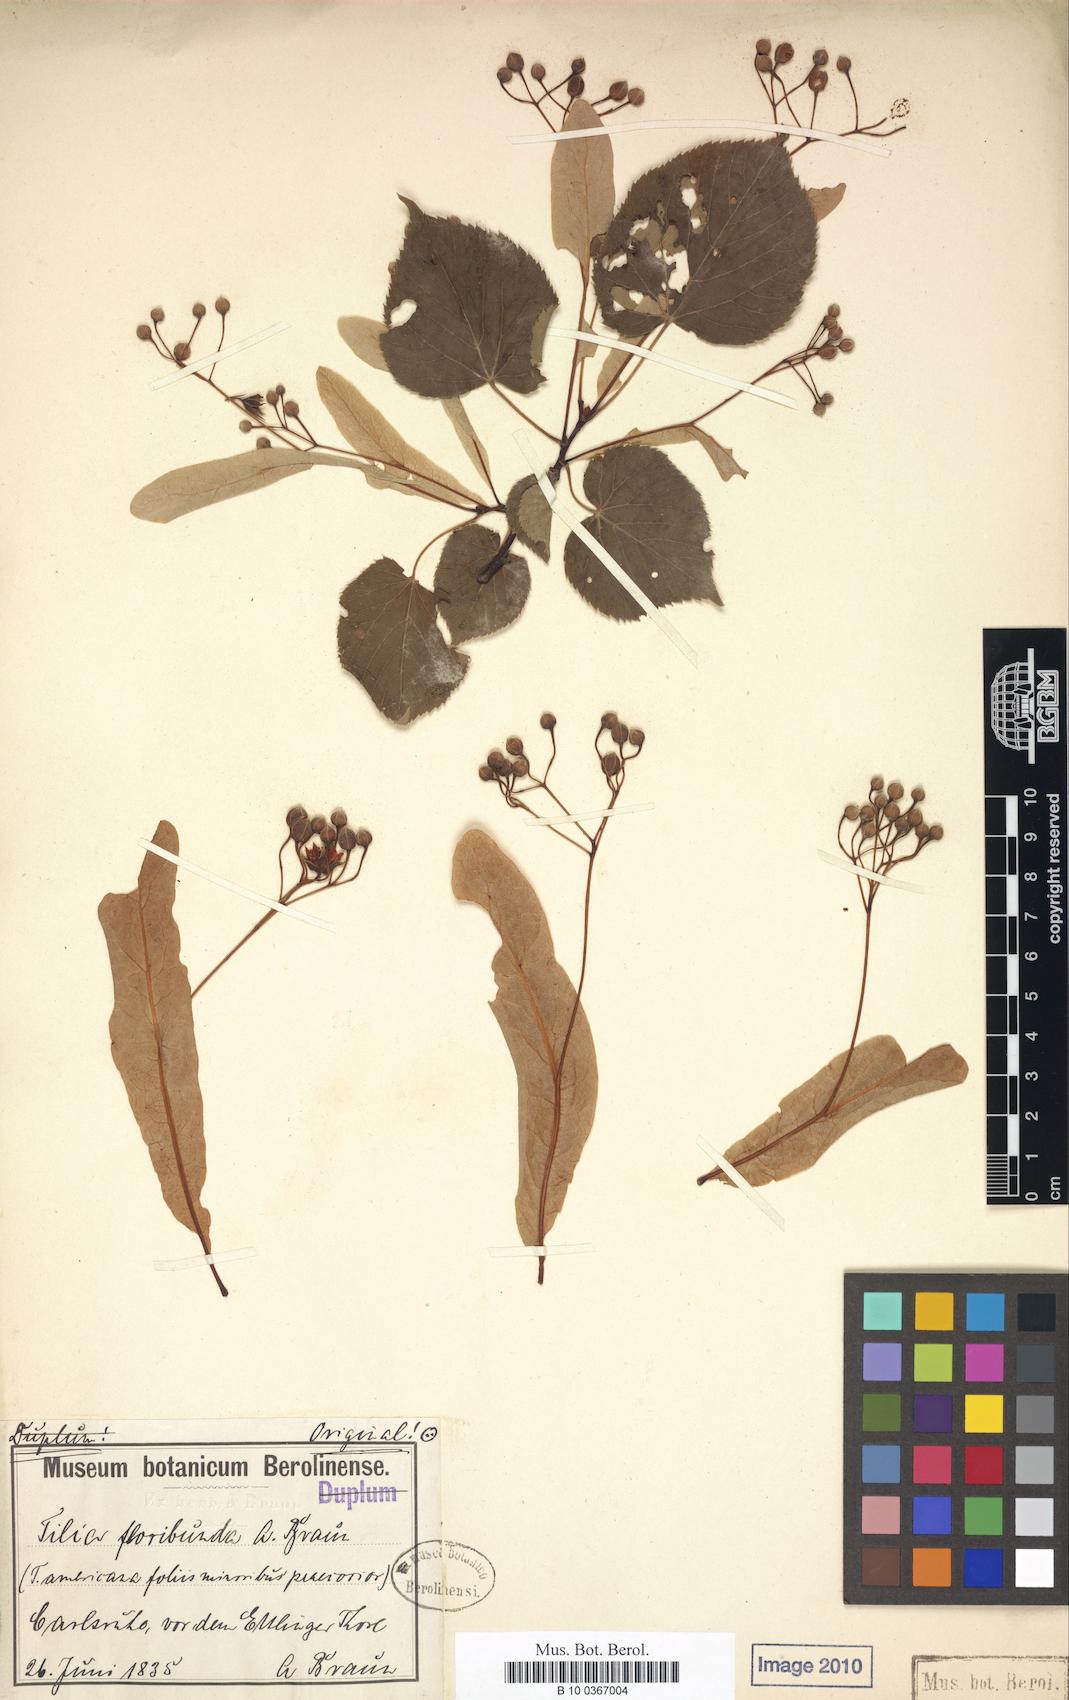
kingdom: Plantae
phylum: Tracheophyta
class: Magnoliopsida
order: Malvales
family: Malvaceae
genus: Tilia
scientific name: Tilia flavescens
